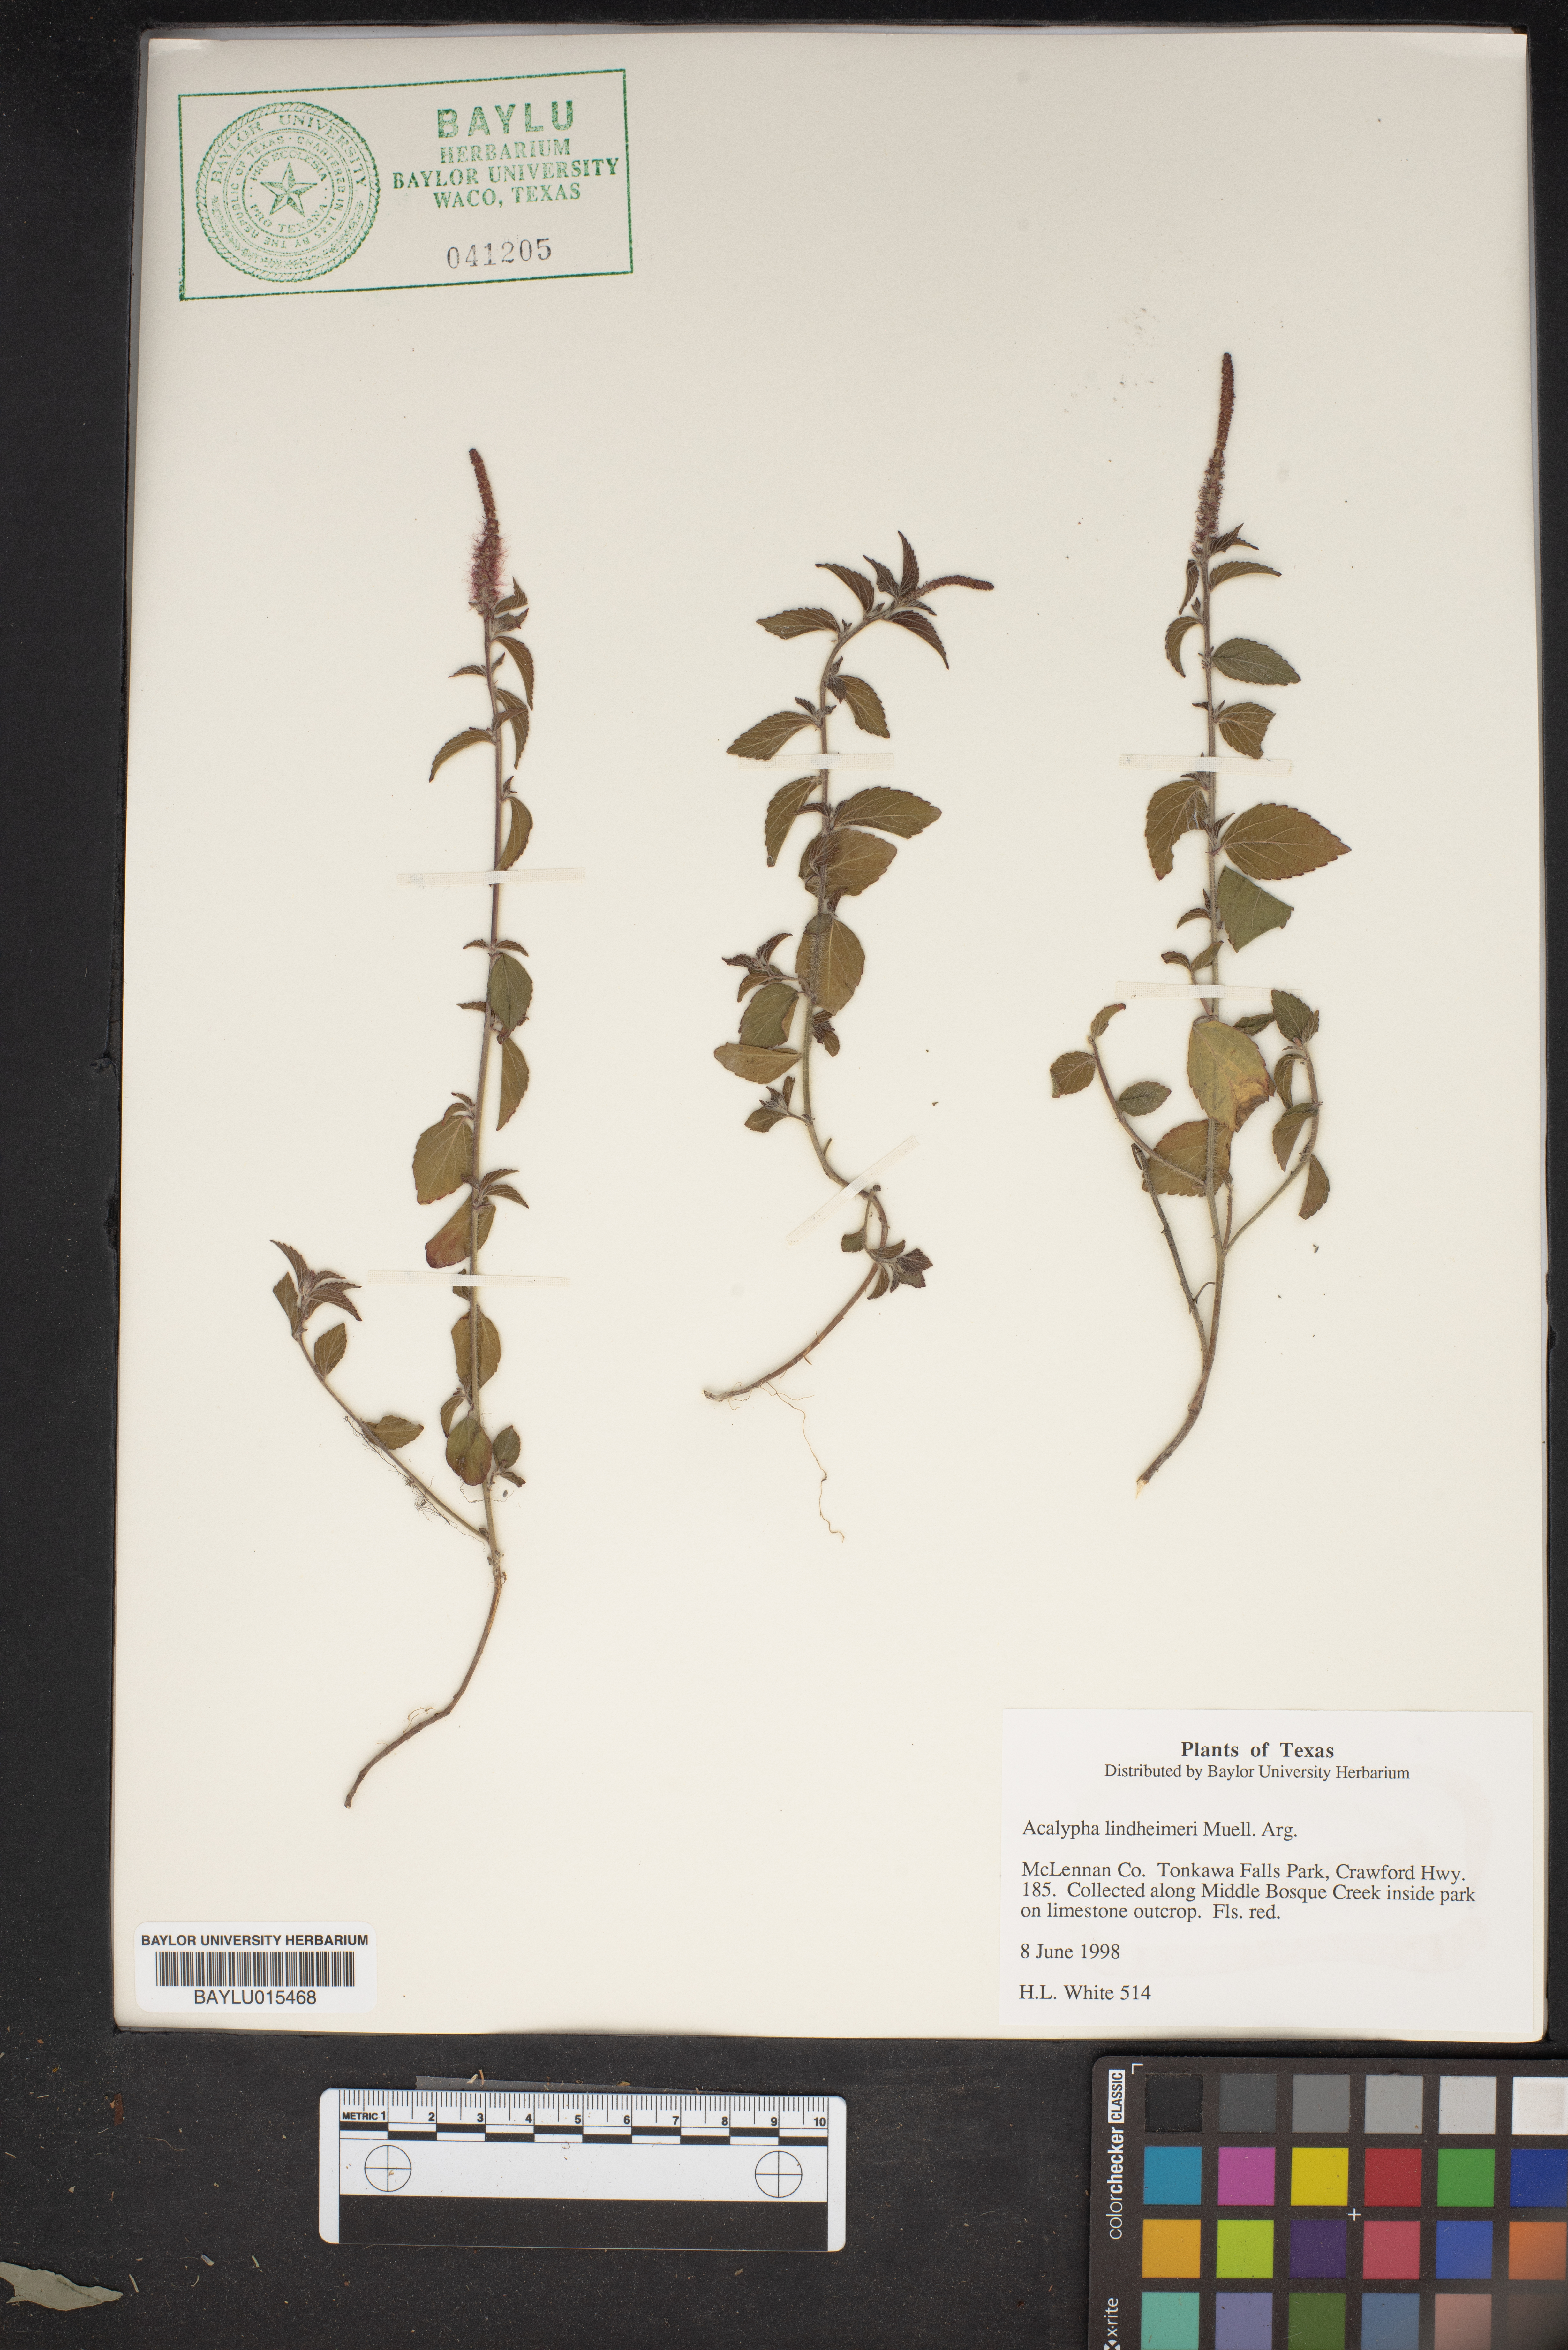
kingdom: Plantae
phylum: Tracheophyta
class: Magnoliopsida
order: Malpighiales
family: Euphorbiaceae
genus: Acalypha
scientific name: Acalypha phleoides
